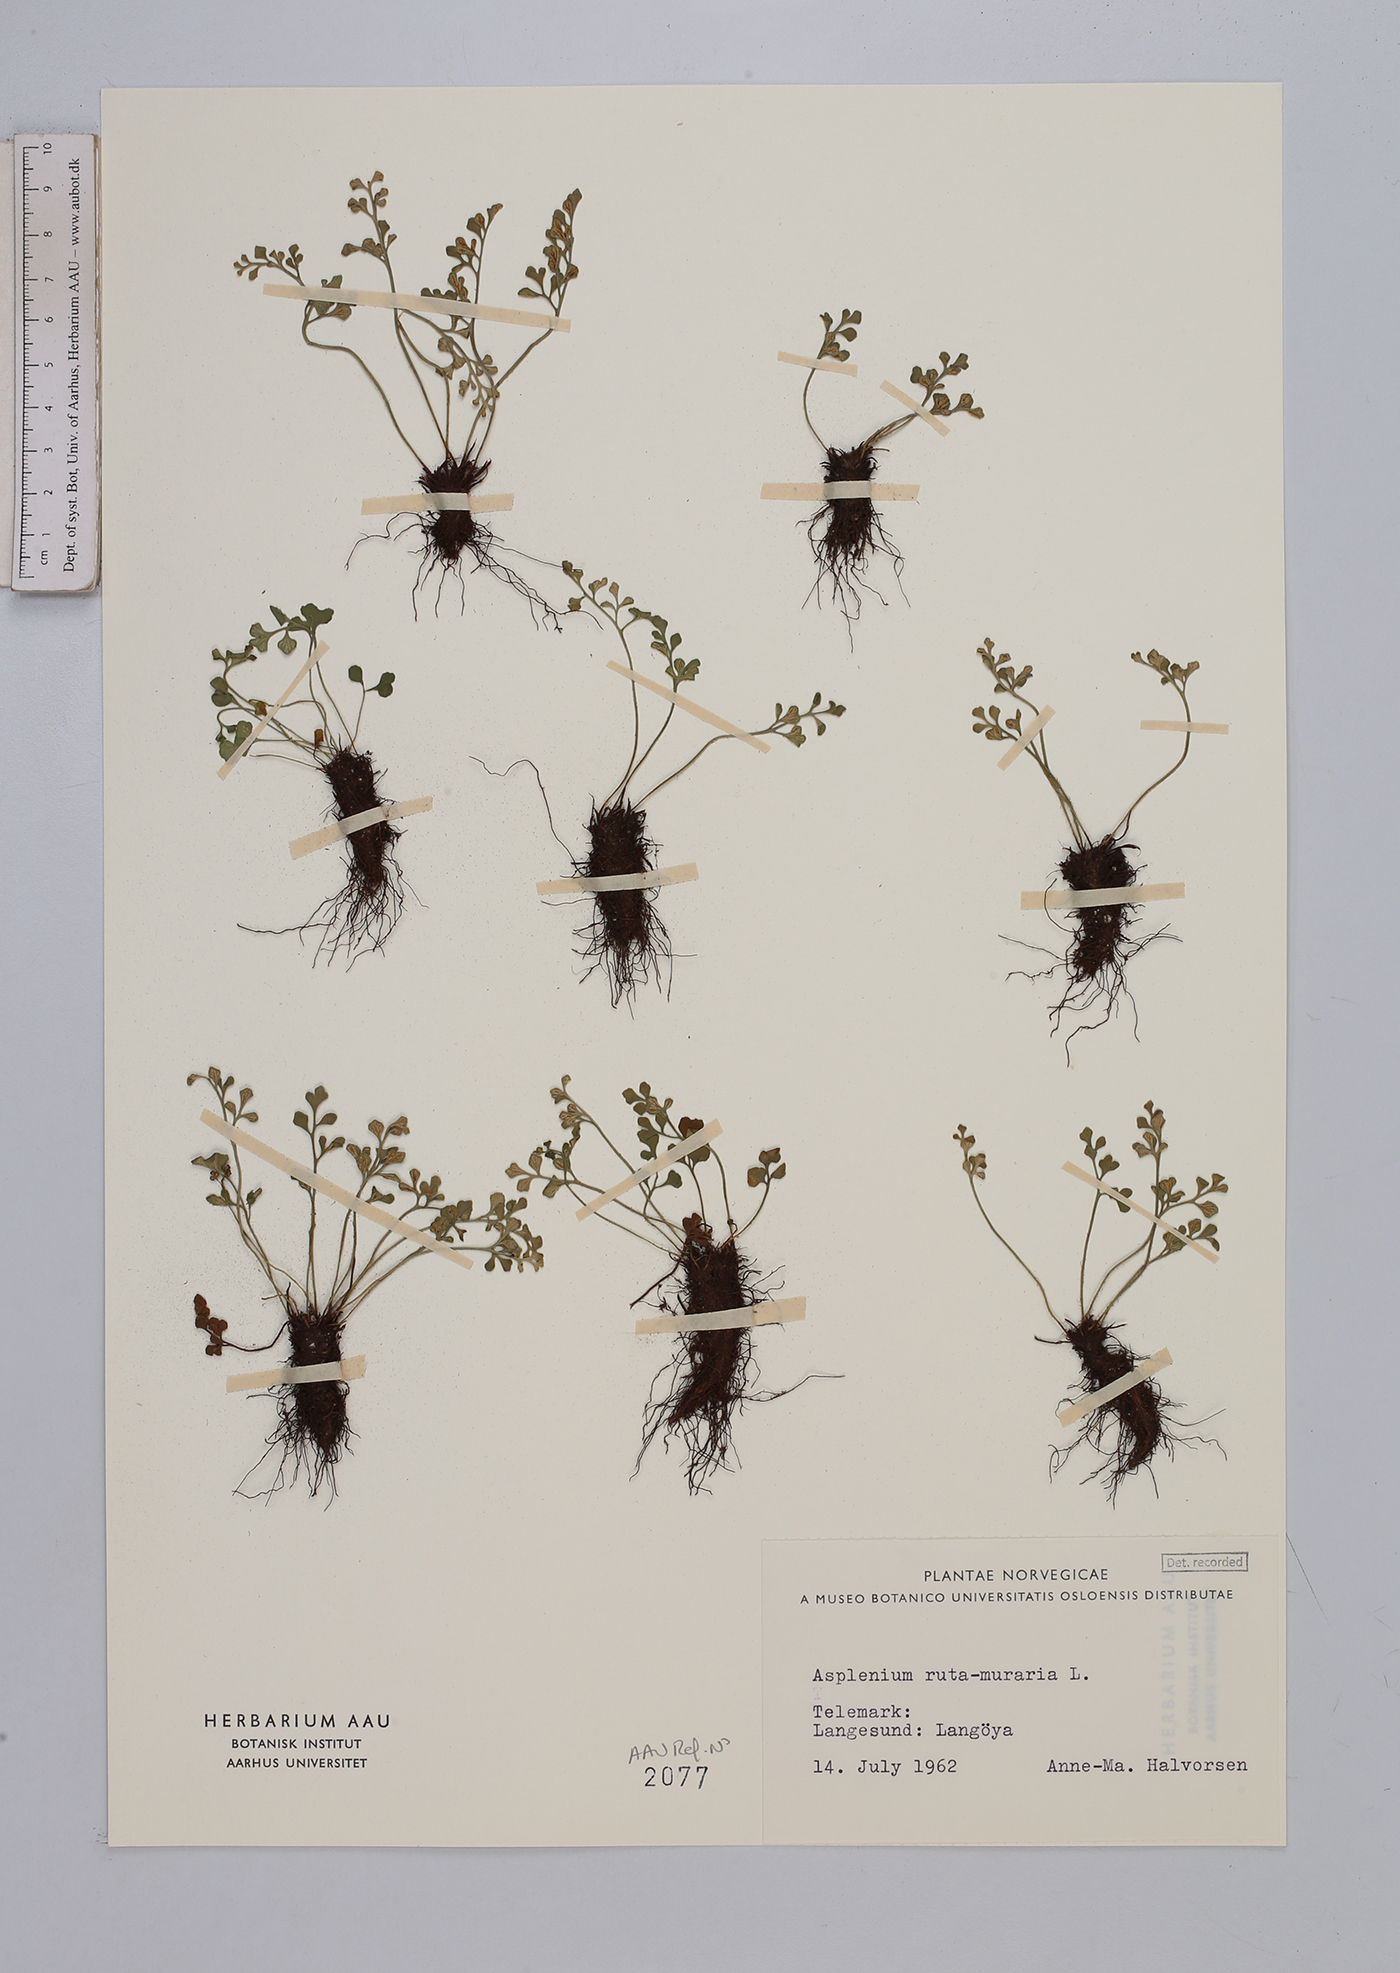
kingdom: Plantae
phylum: Tracheophyta
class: Polypodiopsida
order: Polypodiales
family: Aspleniaceae
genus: Asplenium
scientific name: Asplenium ruta-muraria
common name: Wall-rue
